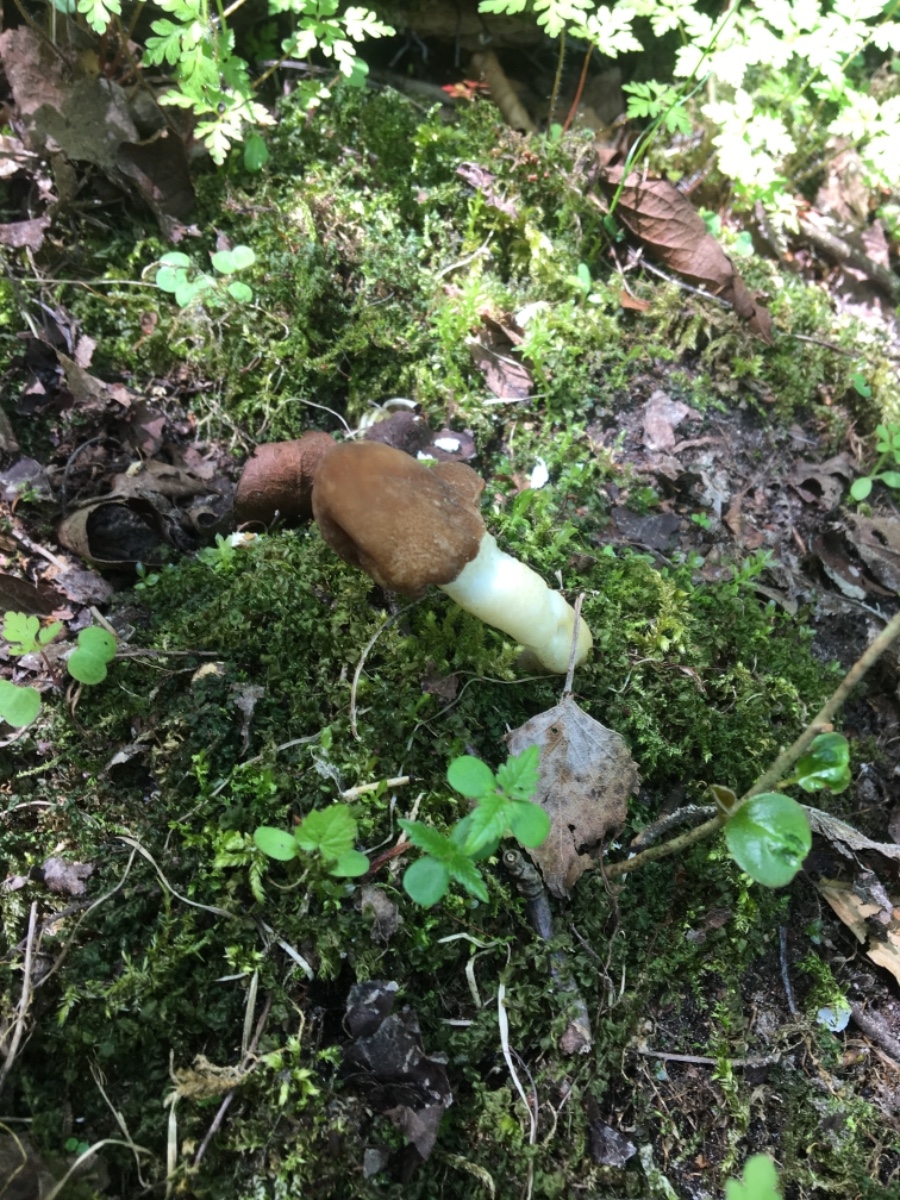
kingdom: Fungi
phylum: Ascomycota
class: Pezizomycetes
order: Pezizales
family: Morchellaceae
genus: Verpa
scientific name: Verpa conica
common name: glat klokkemorkel
